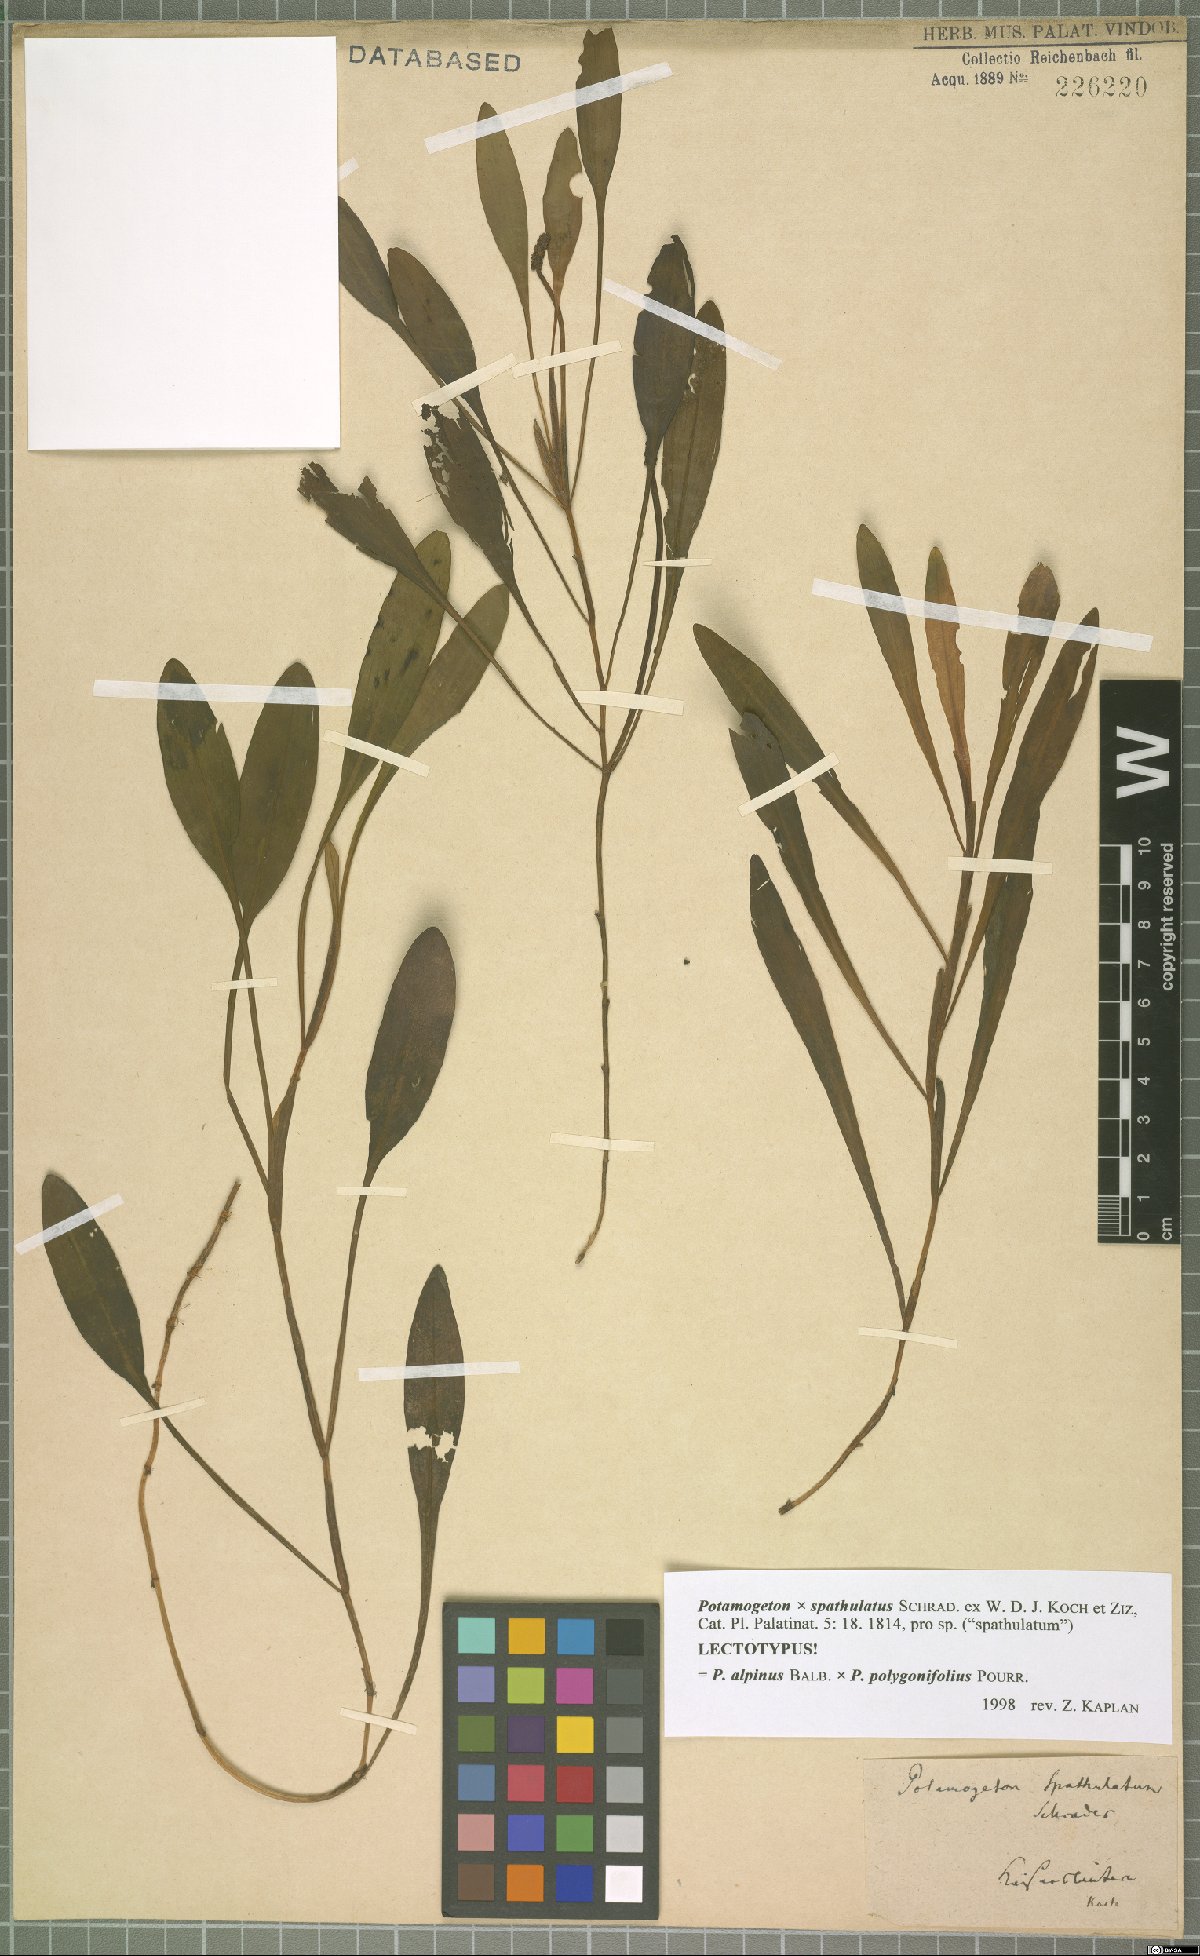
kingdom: Plantae
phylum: Tracheophyta
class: Liliopsida
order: Alismatales
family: Potamogetonaceae
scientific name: Potamogetonaceae
